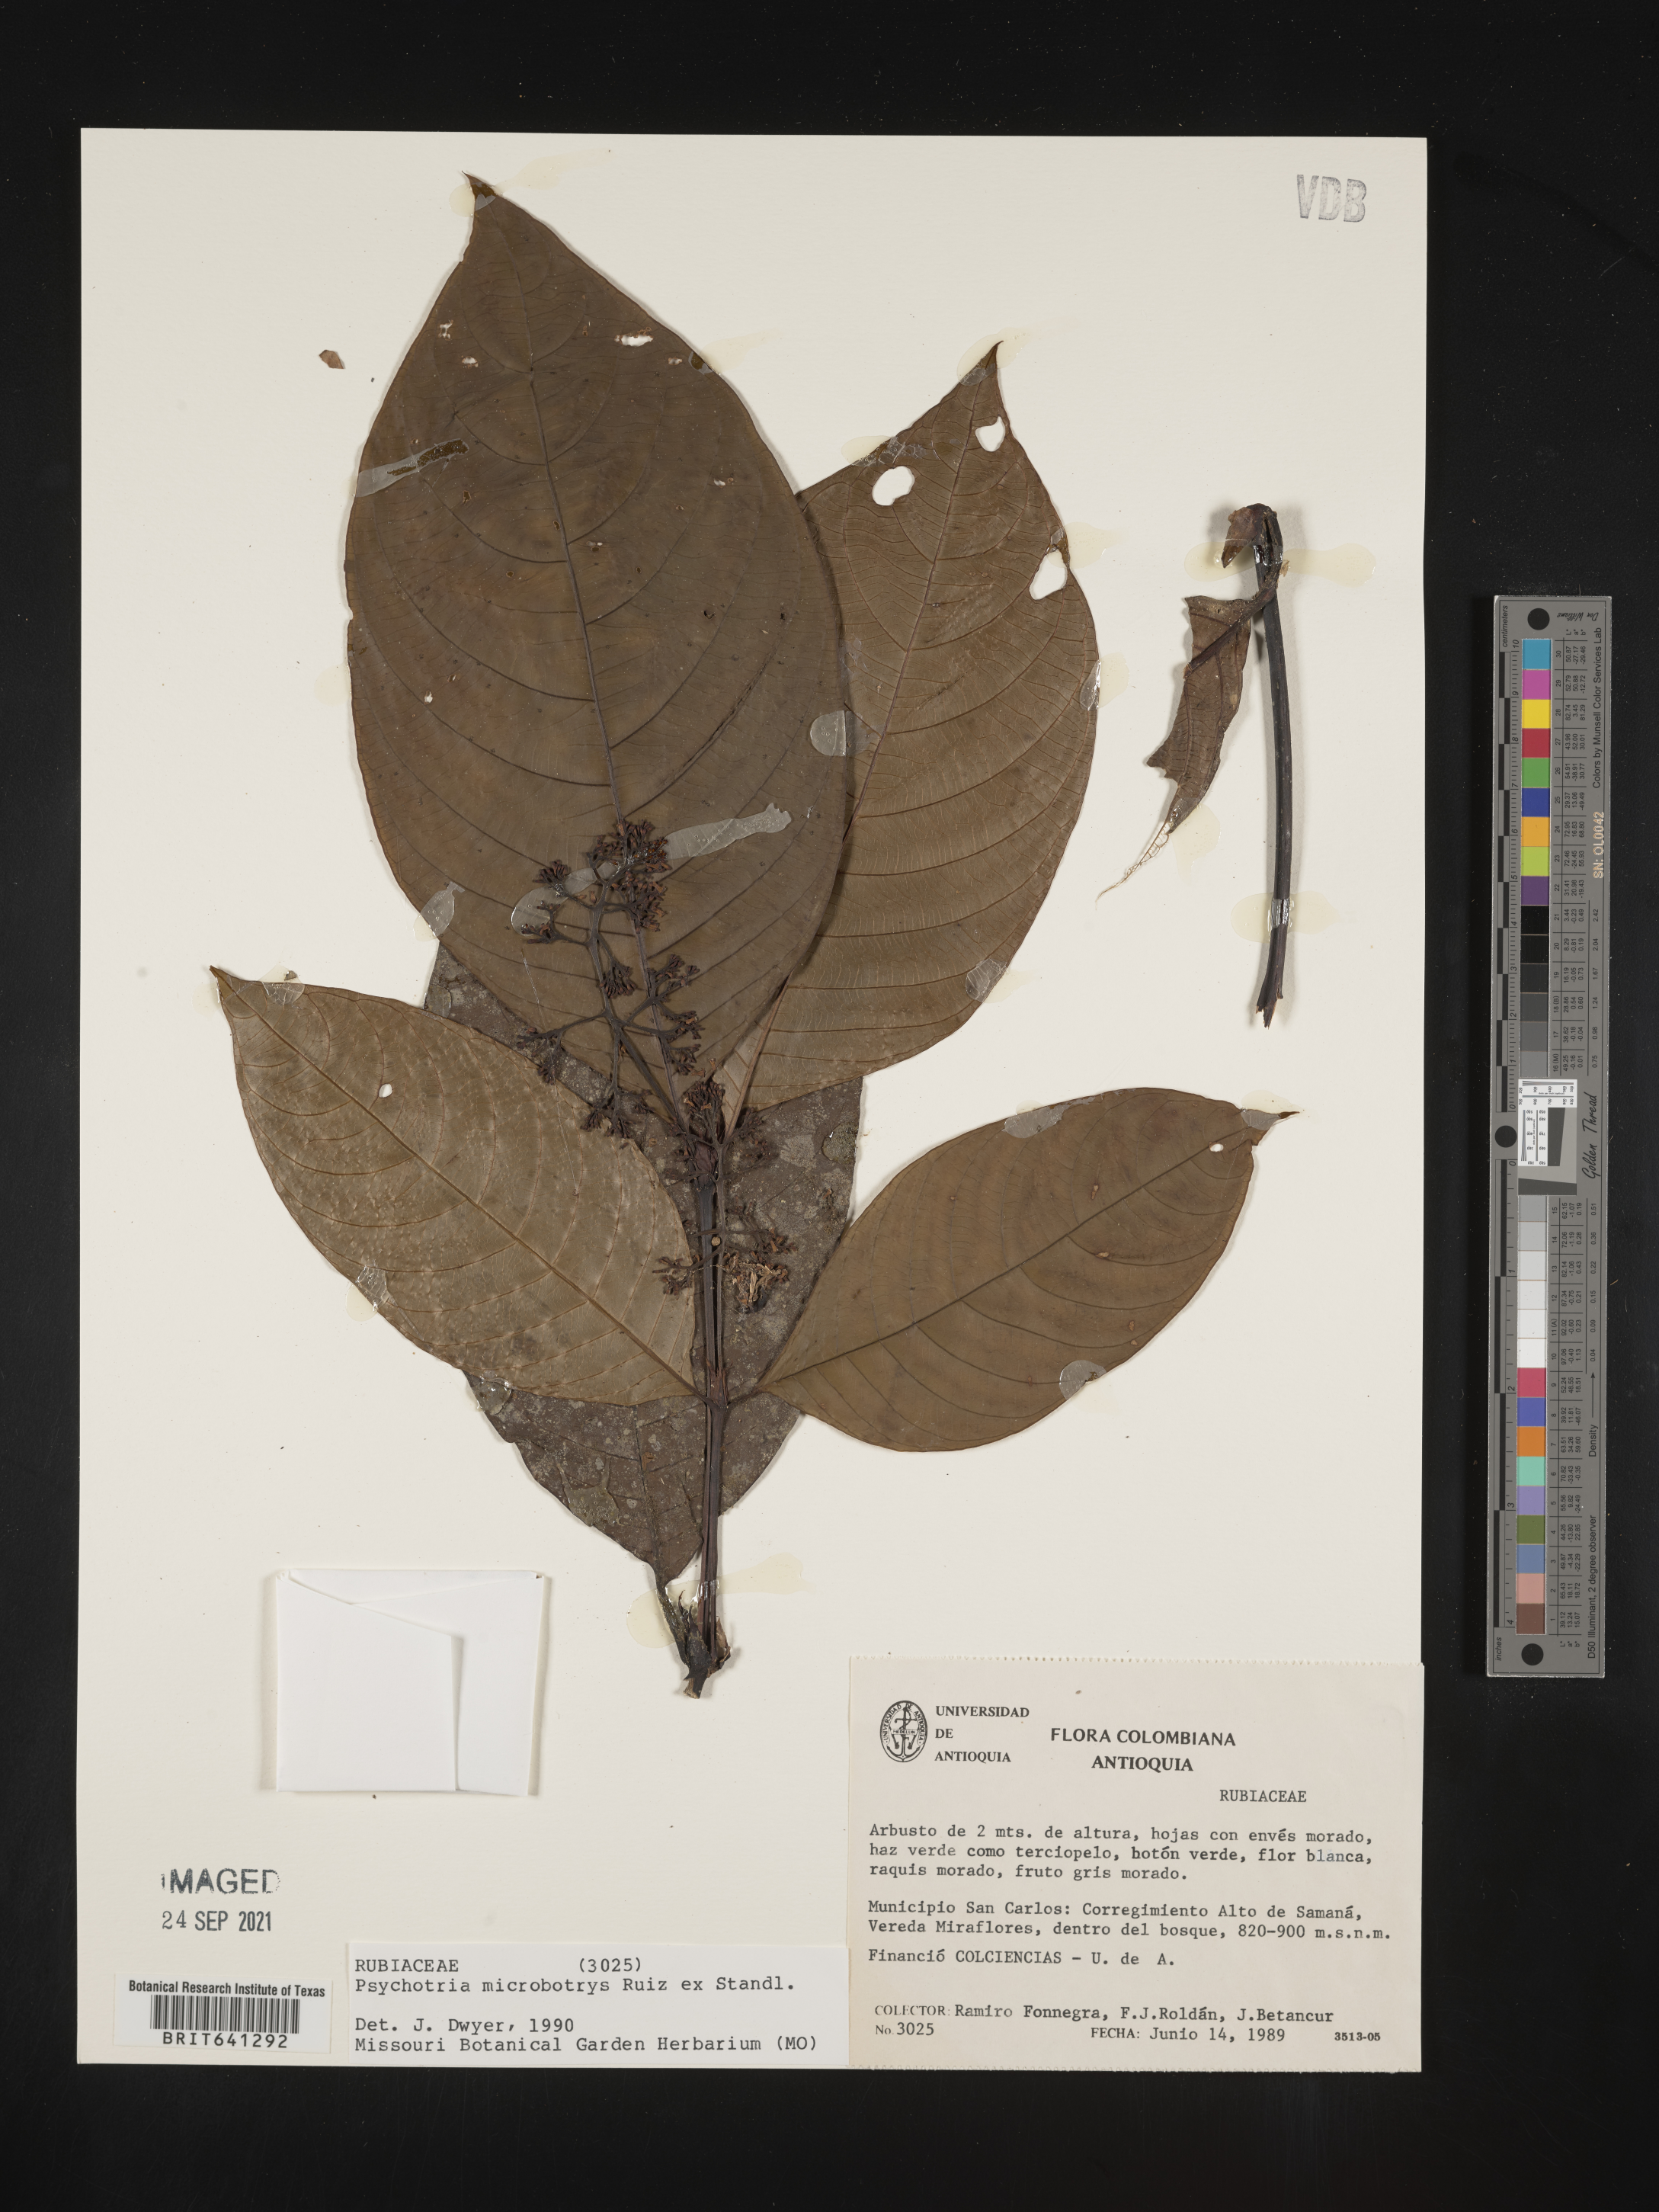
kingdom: Plantae
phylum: Tracheophyta
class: Magnoliopsida
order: Gentianales
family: Rubiaceae
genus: Psychotria
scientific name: Psychotria
